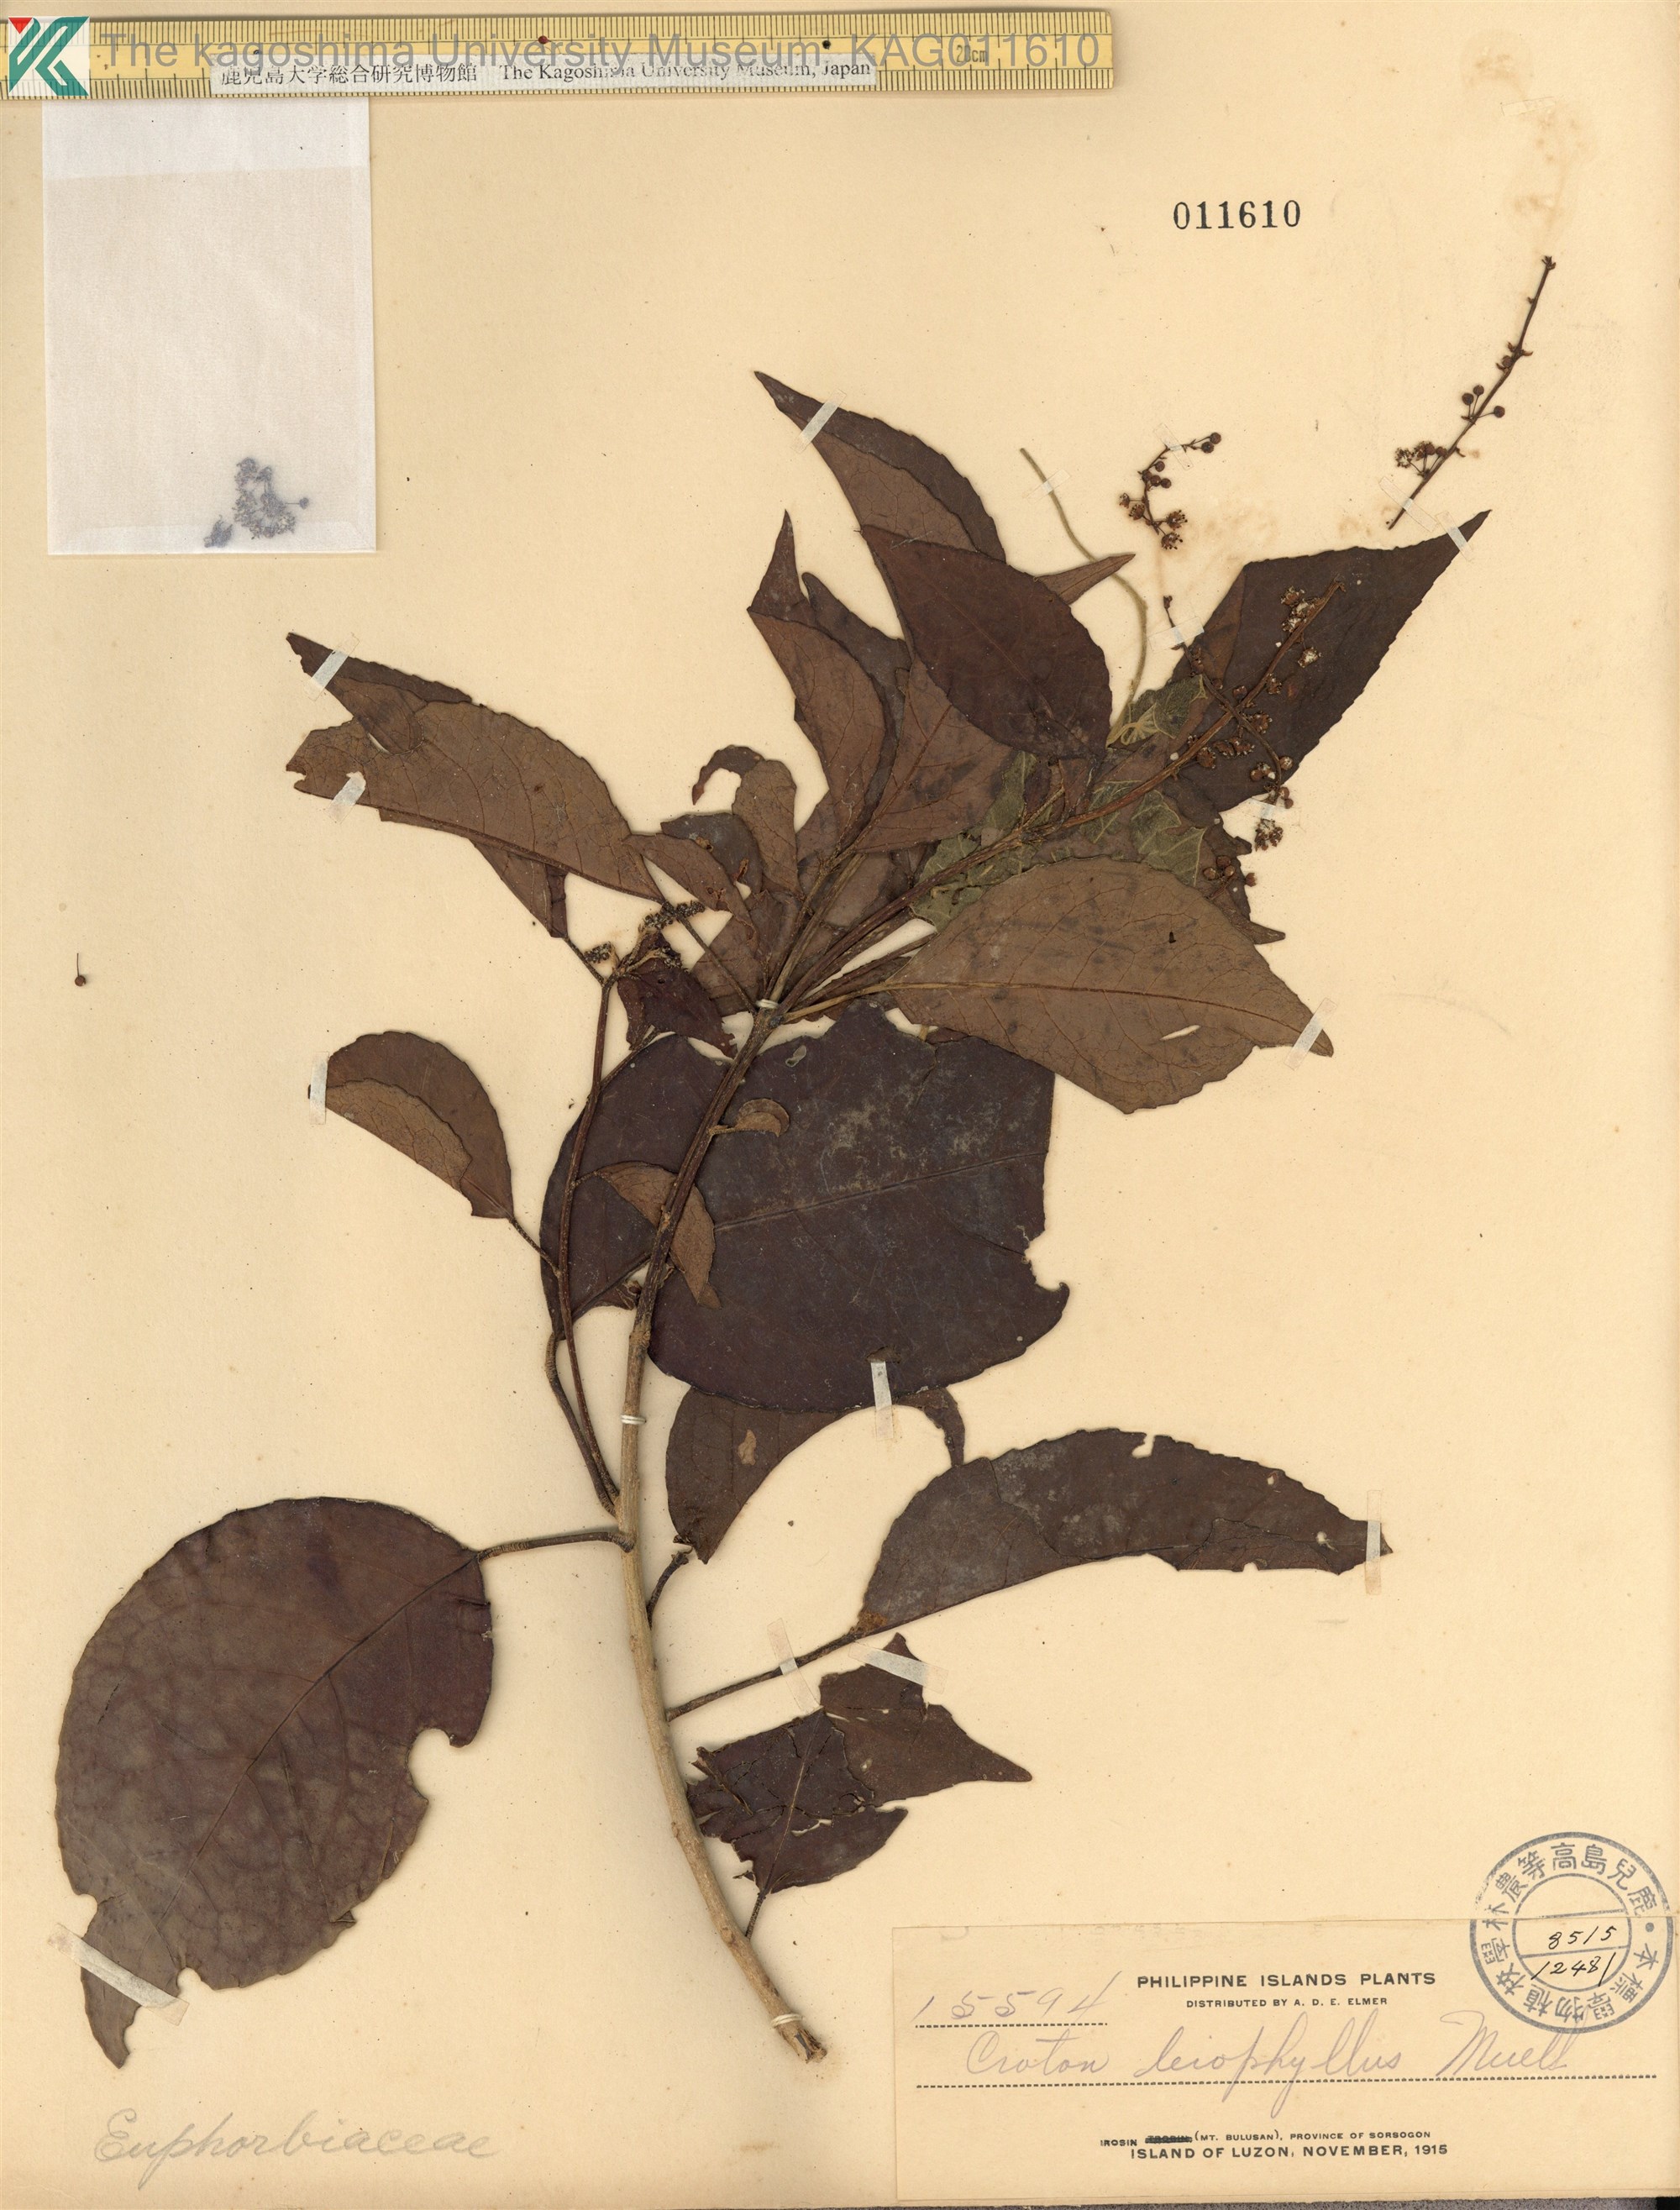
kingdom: Plantae
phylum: Tracheophyta
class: Magnoliopsida
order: Malpighiales
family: Euphorbiaceae
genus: Croton
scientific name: Croton leiophyllus
